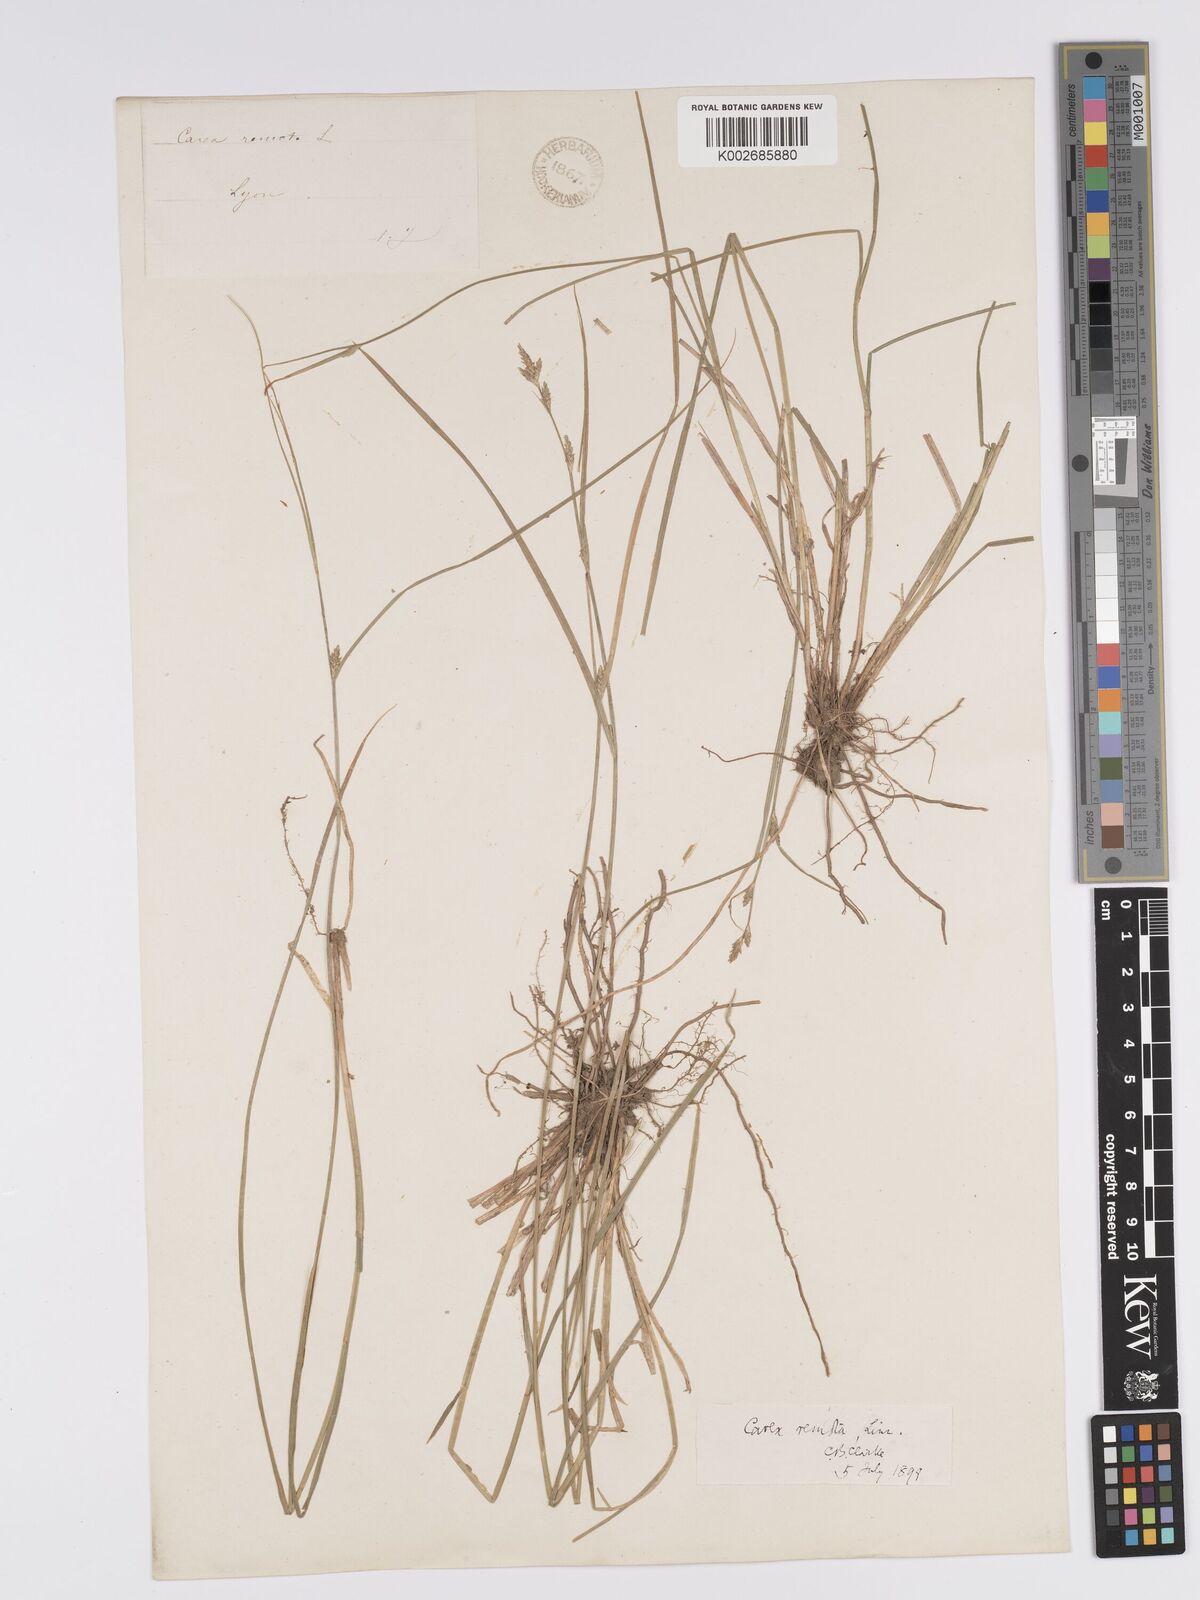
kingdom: Plantae
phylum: Tracheophyta
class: Liliopsida
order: Poales
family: Cyperaceae
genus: Carex
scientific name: Carex remota
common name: Remote sedge
